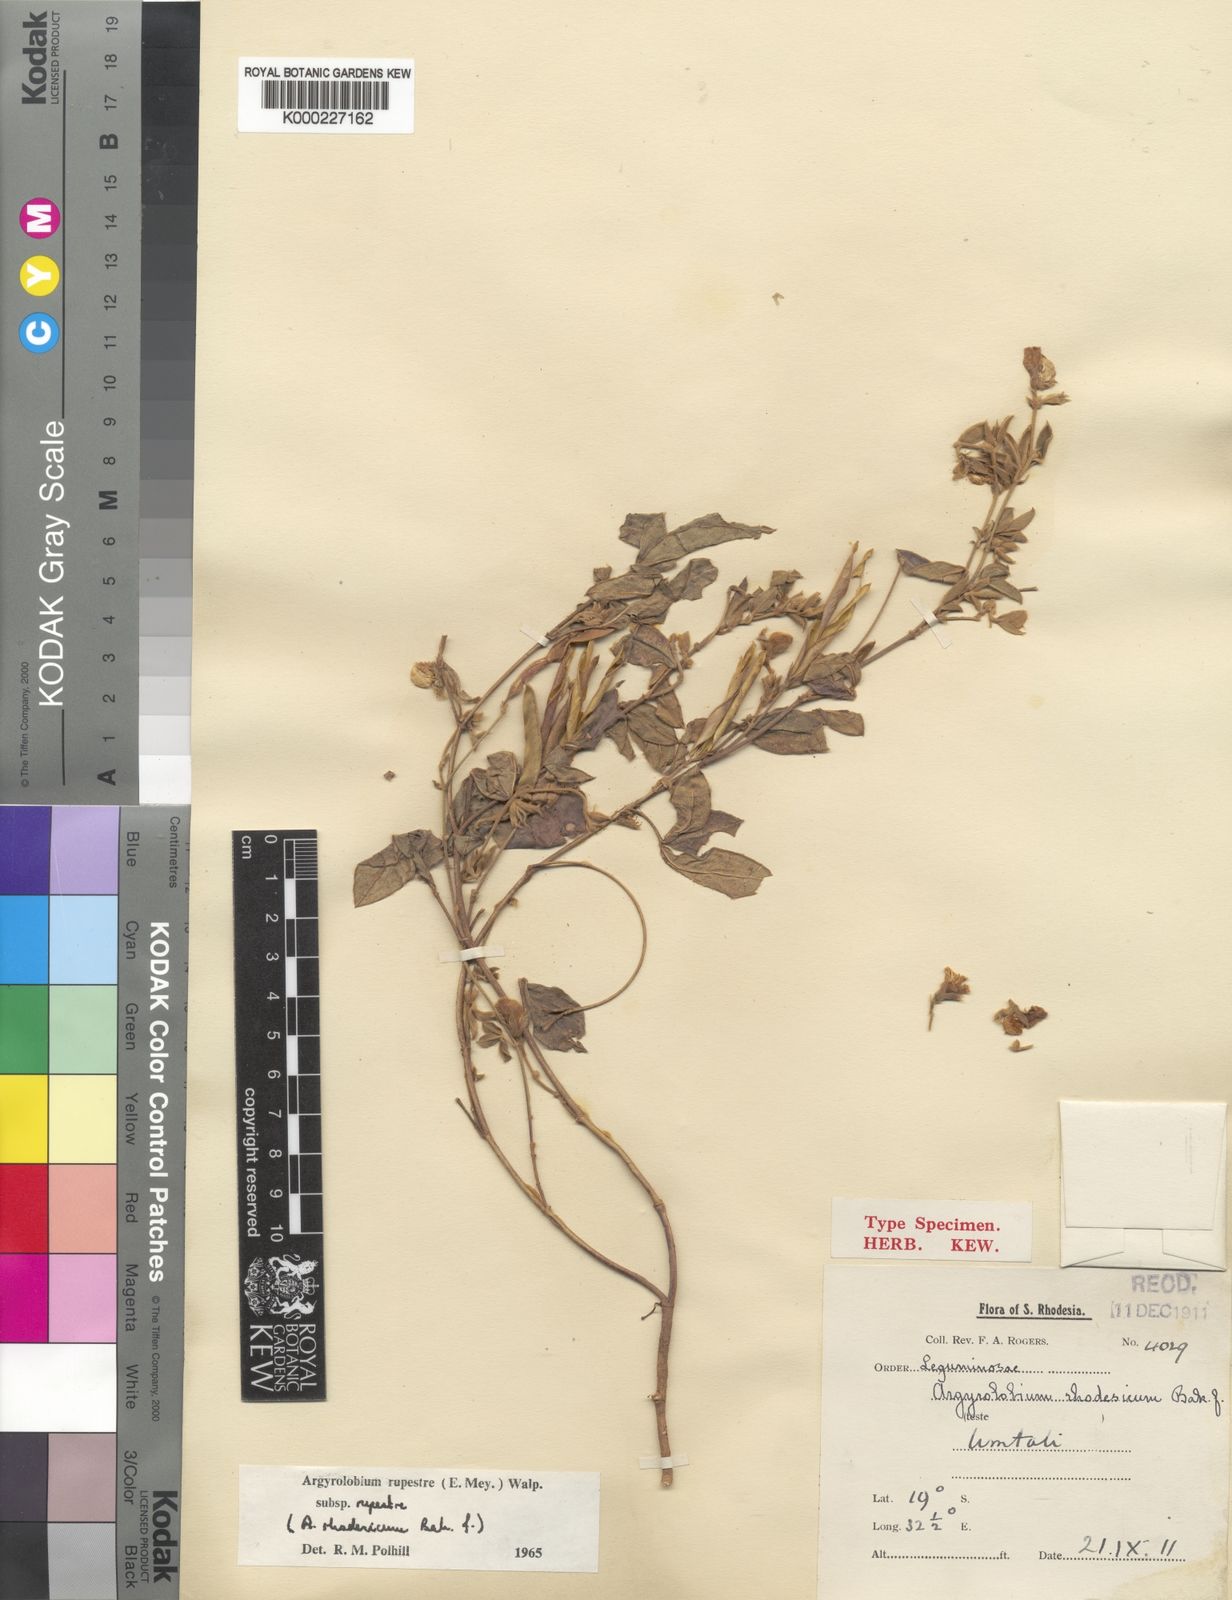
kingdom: Plantae
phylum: Tracheophyta
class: Magnoliopsida
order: Fabales
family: Fabaceae
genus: Argyrolobium
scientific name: Argyrolobium rupestre
